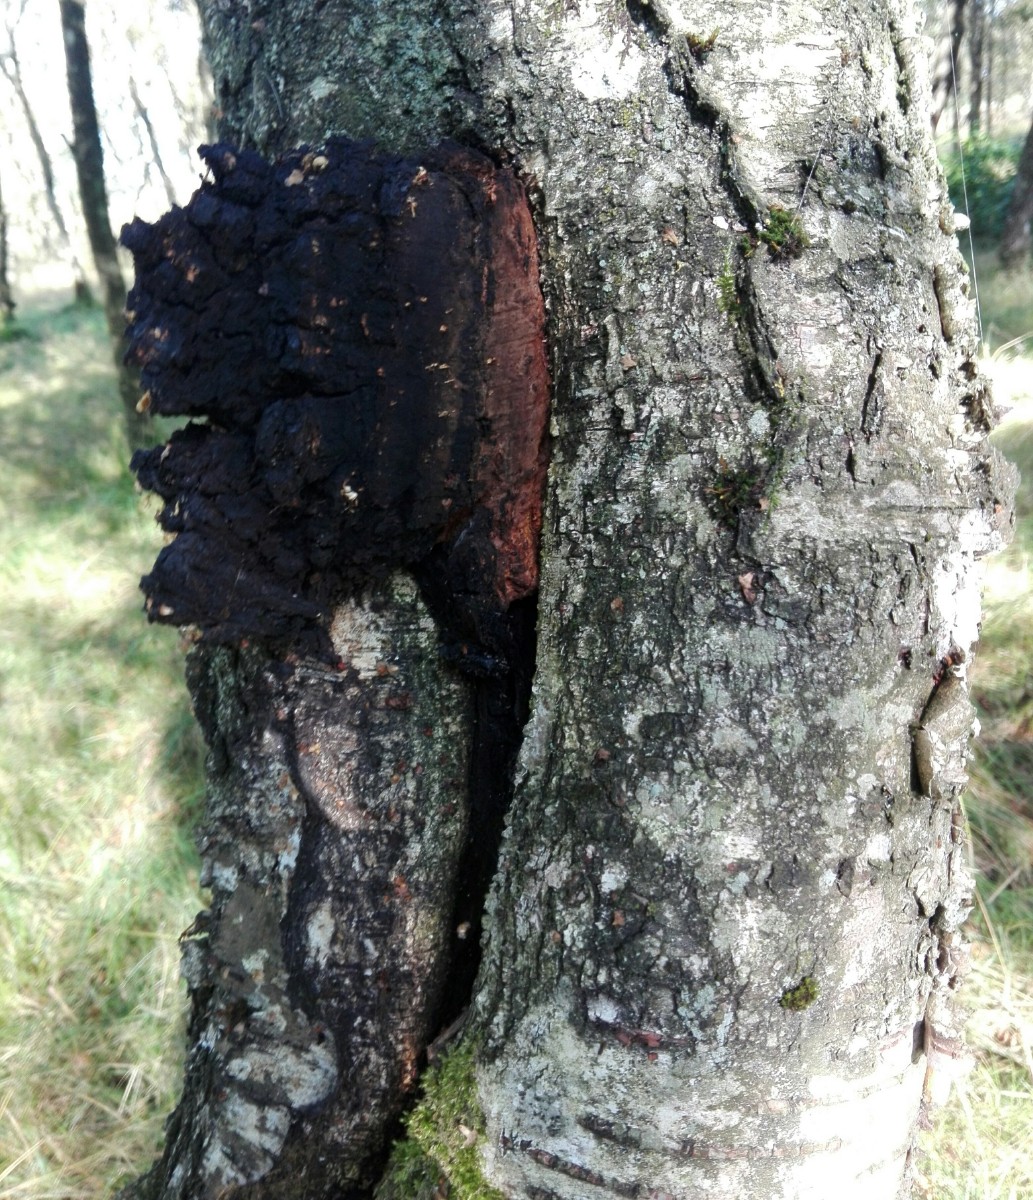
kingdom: Fungi
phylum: Basidiomycota
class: Agaricomycetes
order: Hymenochaetales
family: Hymenochaetaceae
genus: Inonotus
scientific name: Inonotus obliquus
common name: birke-spejlporesvamp
